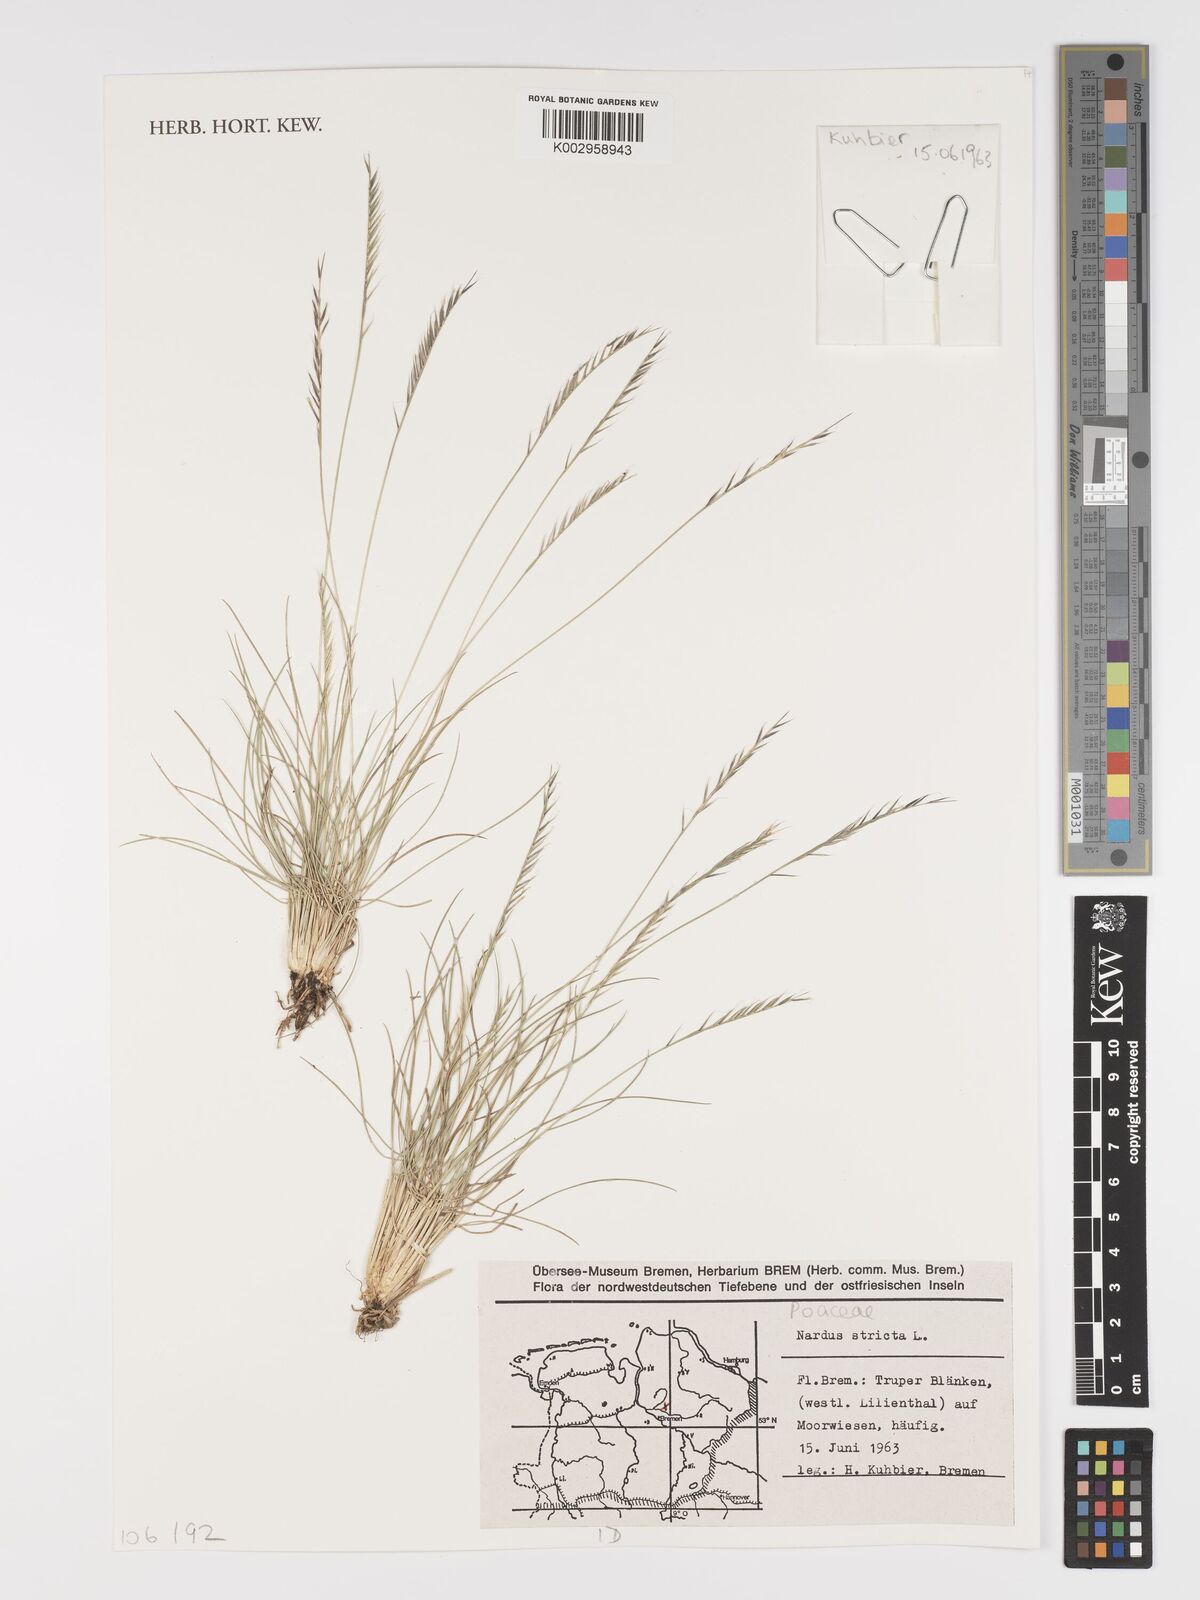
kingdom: Plantae
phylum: Tracheophyta
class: Liliopsida
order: Poales
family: Poaceae
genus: Nardus
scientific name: Nardus stricta
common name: Mat-grass
